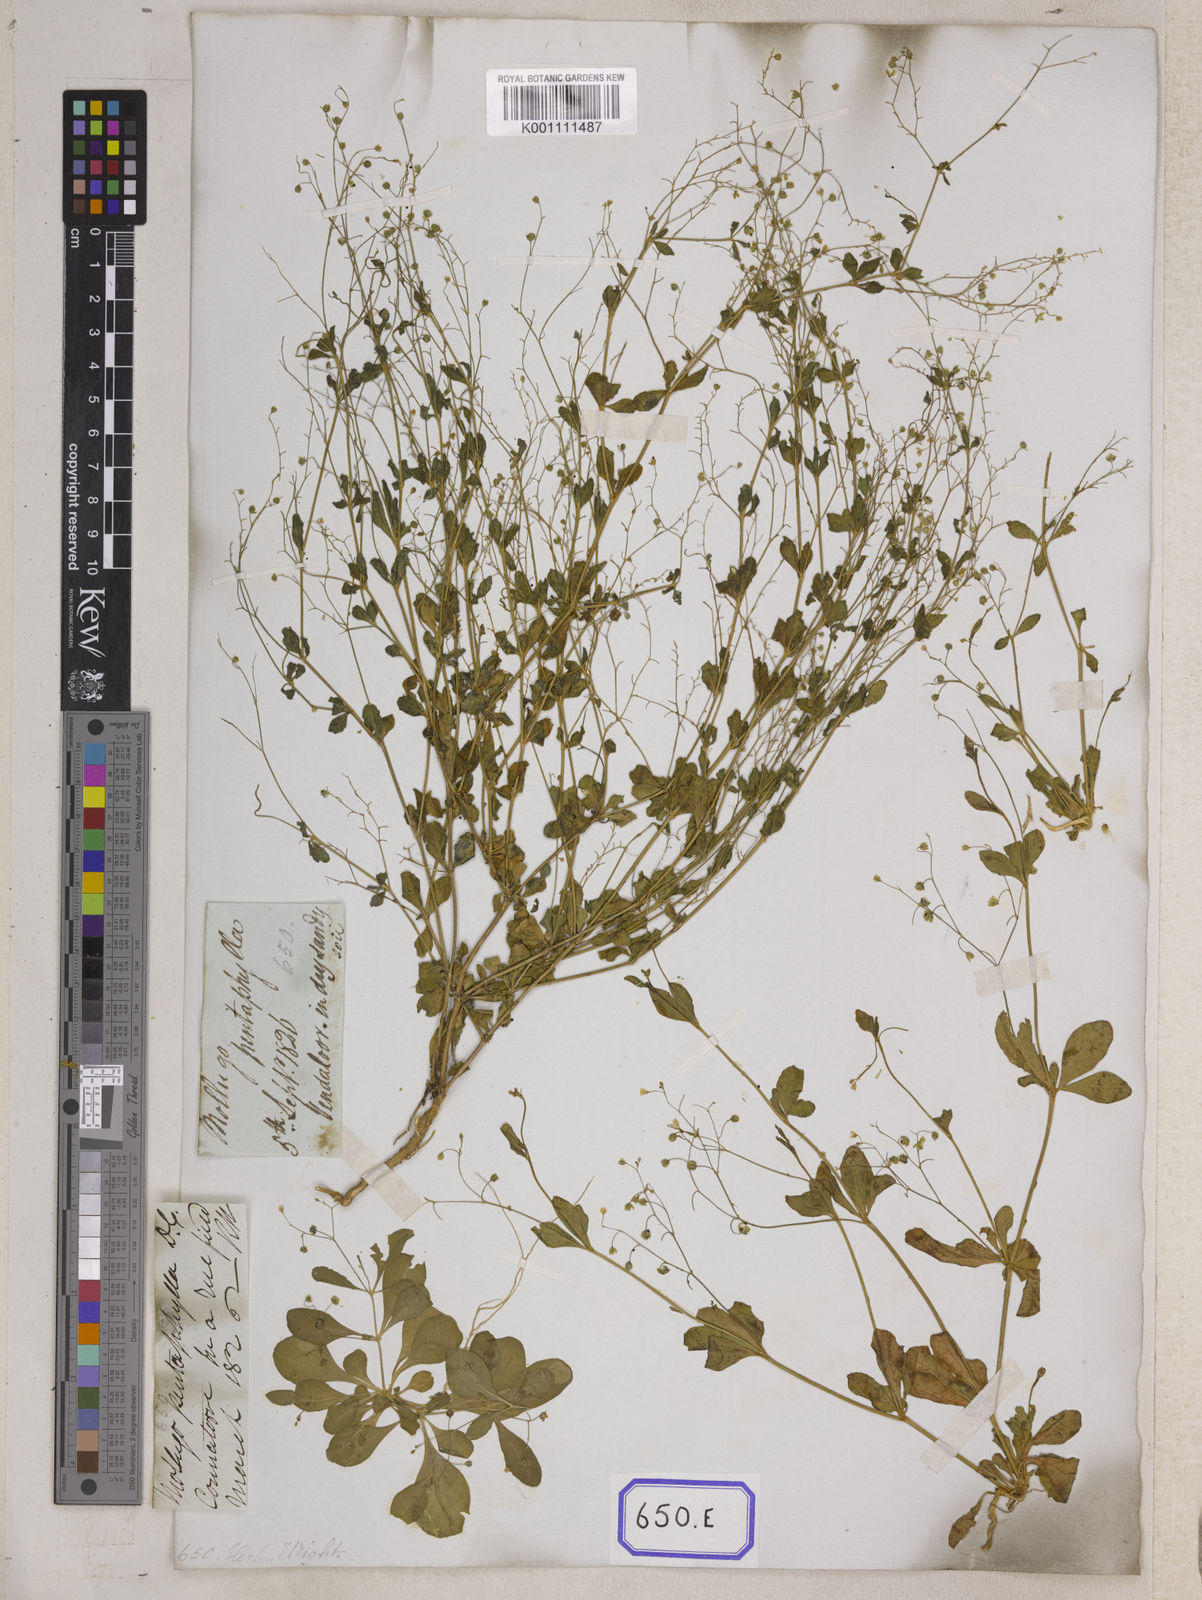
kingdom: Plantae
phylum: Tracheophyta
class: Magnoliopsida
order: Caryophyllales
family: Molluginaceae
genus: Trigastrotheca
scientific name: Trigastrotheca pentaphylla
